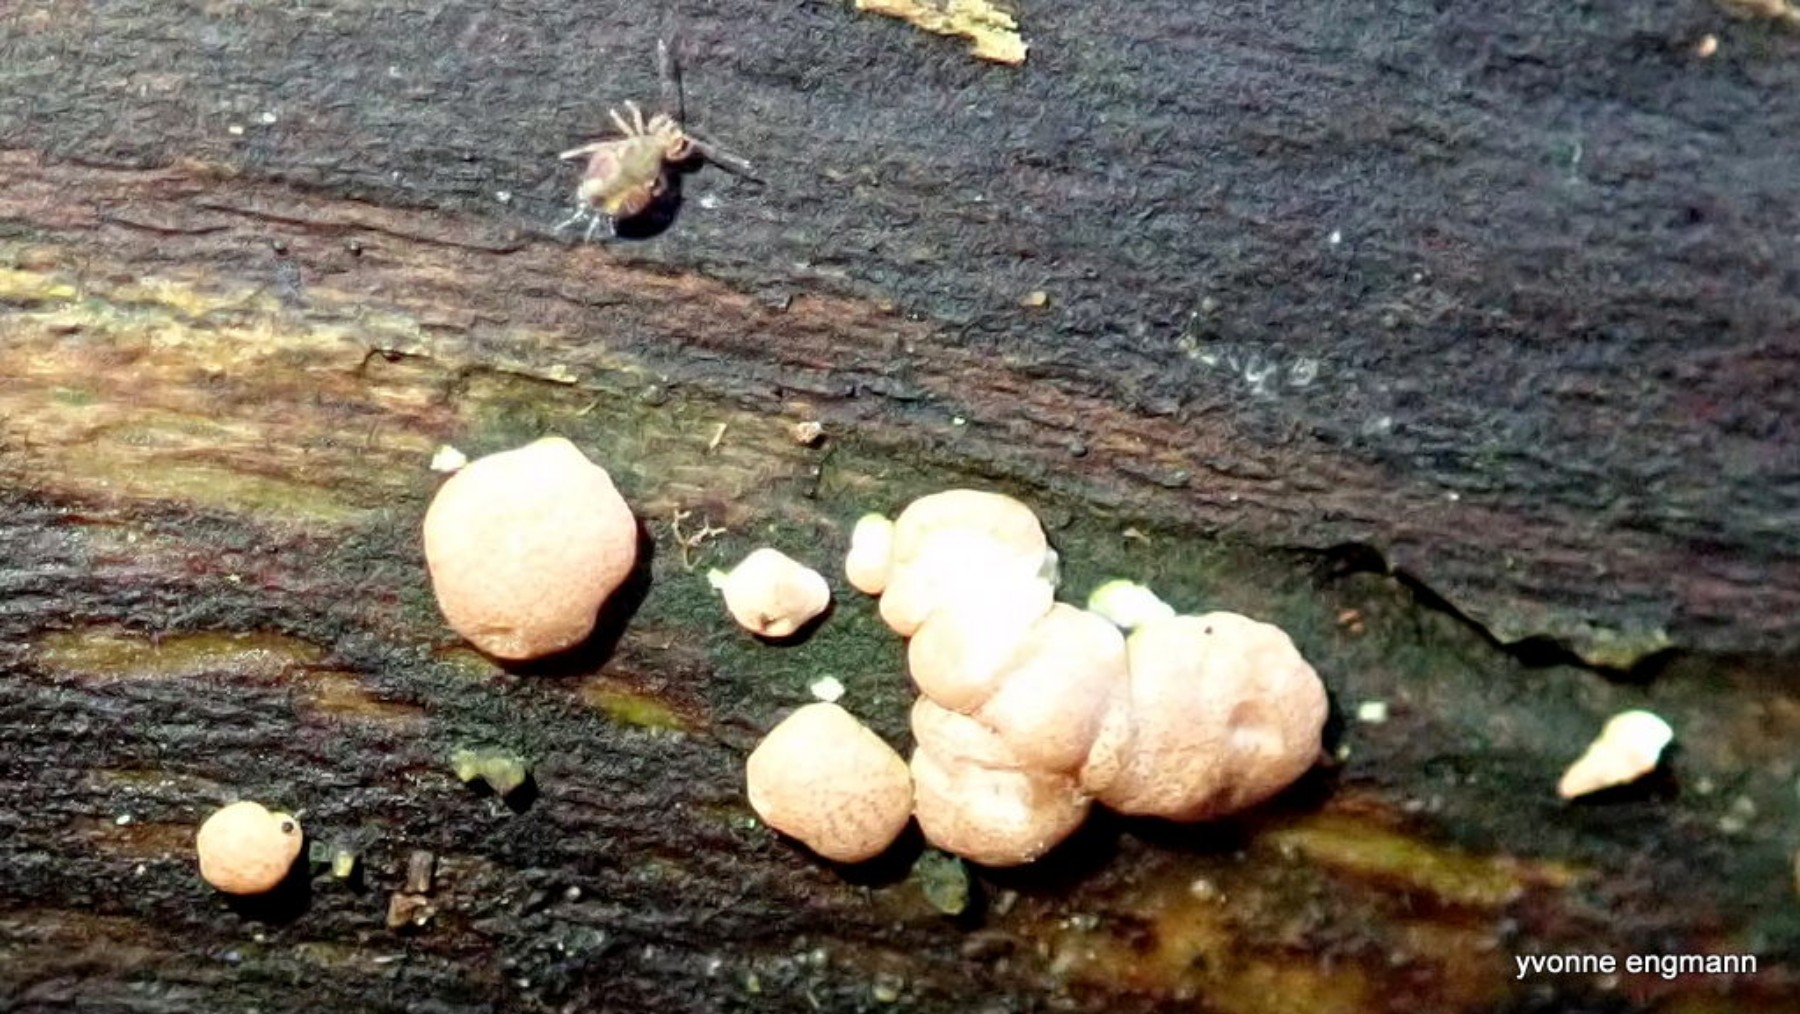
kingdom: Fungi
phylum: Ascomycota
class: Sordariomycetes
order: Hypocreales
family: Hypocreaceae
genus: Trichoderma
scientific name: Trichoderma europaeum
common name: rosabrun kødkerne
